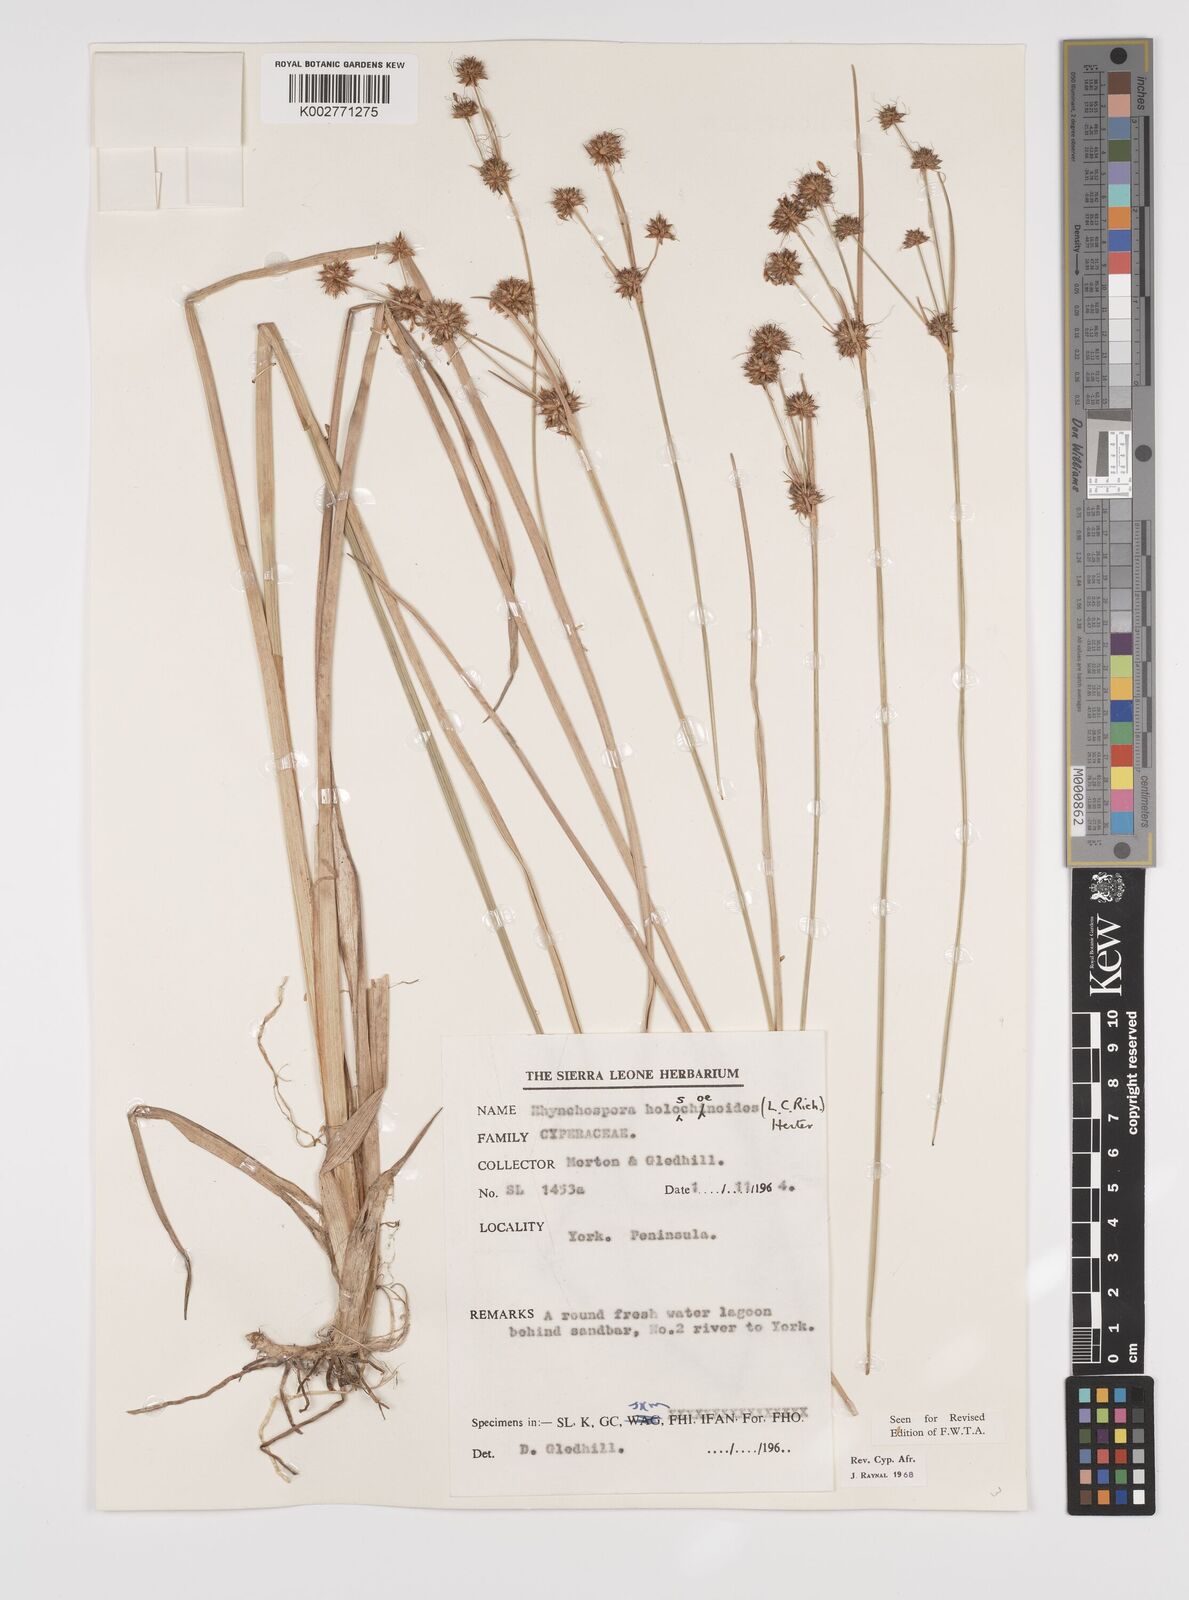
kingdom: Plantae
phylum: Tracheophyta
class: Liliopsida
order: Poales
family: Cyperaceae
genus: Rhynchospora
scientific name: Rhynchospora holoschoenoides
